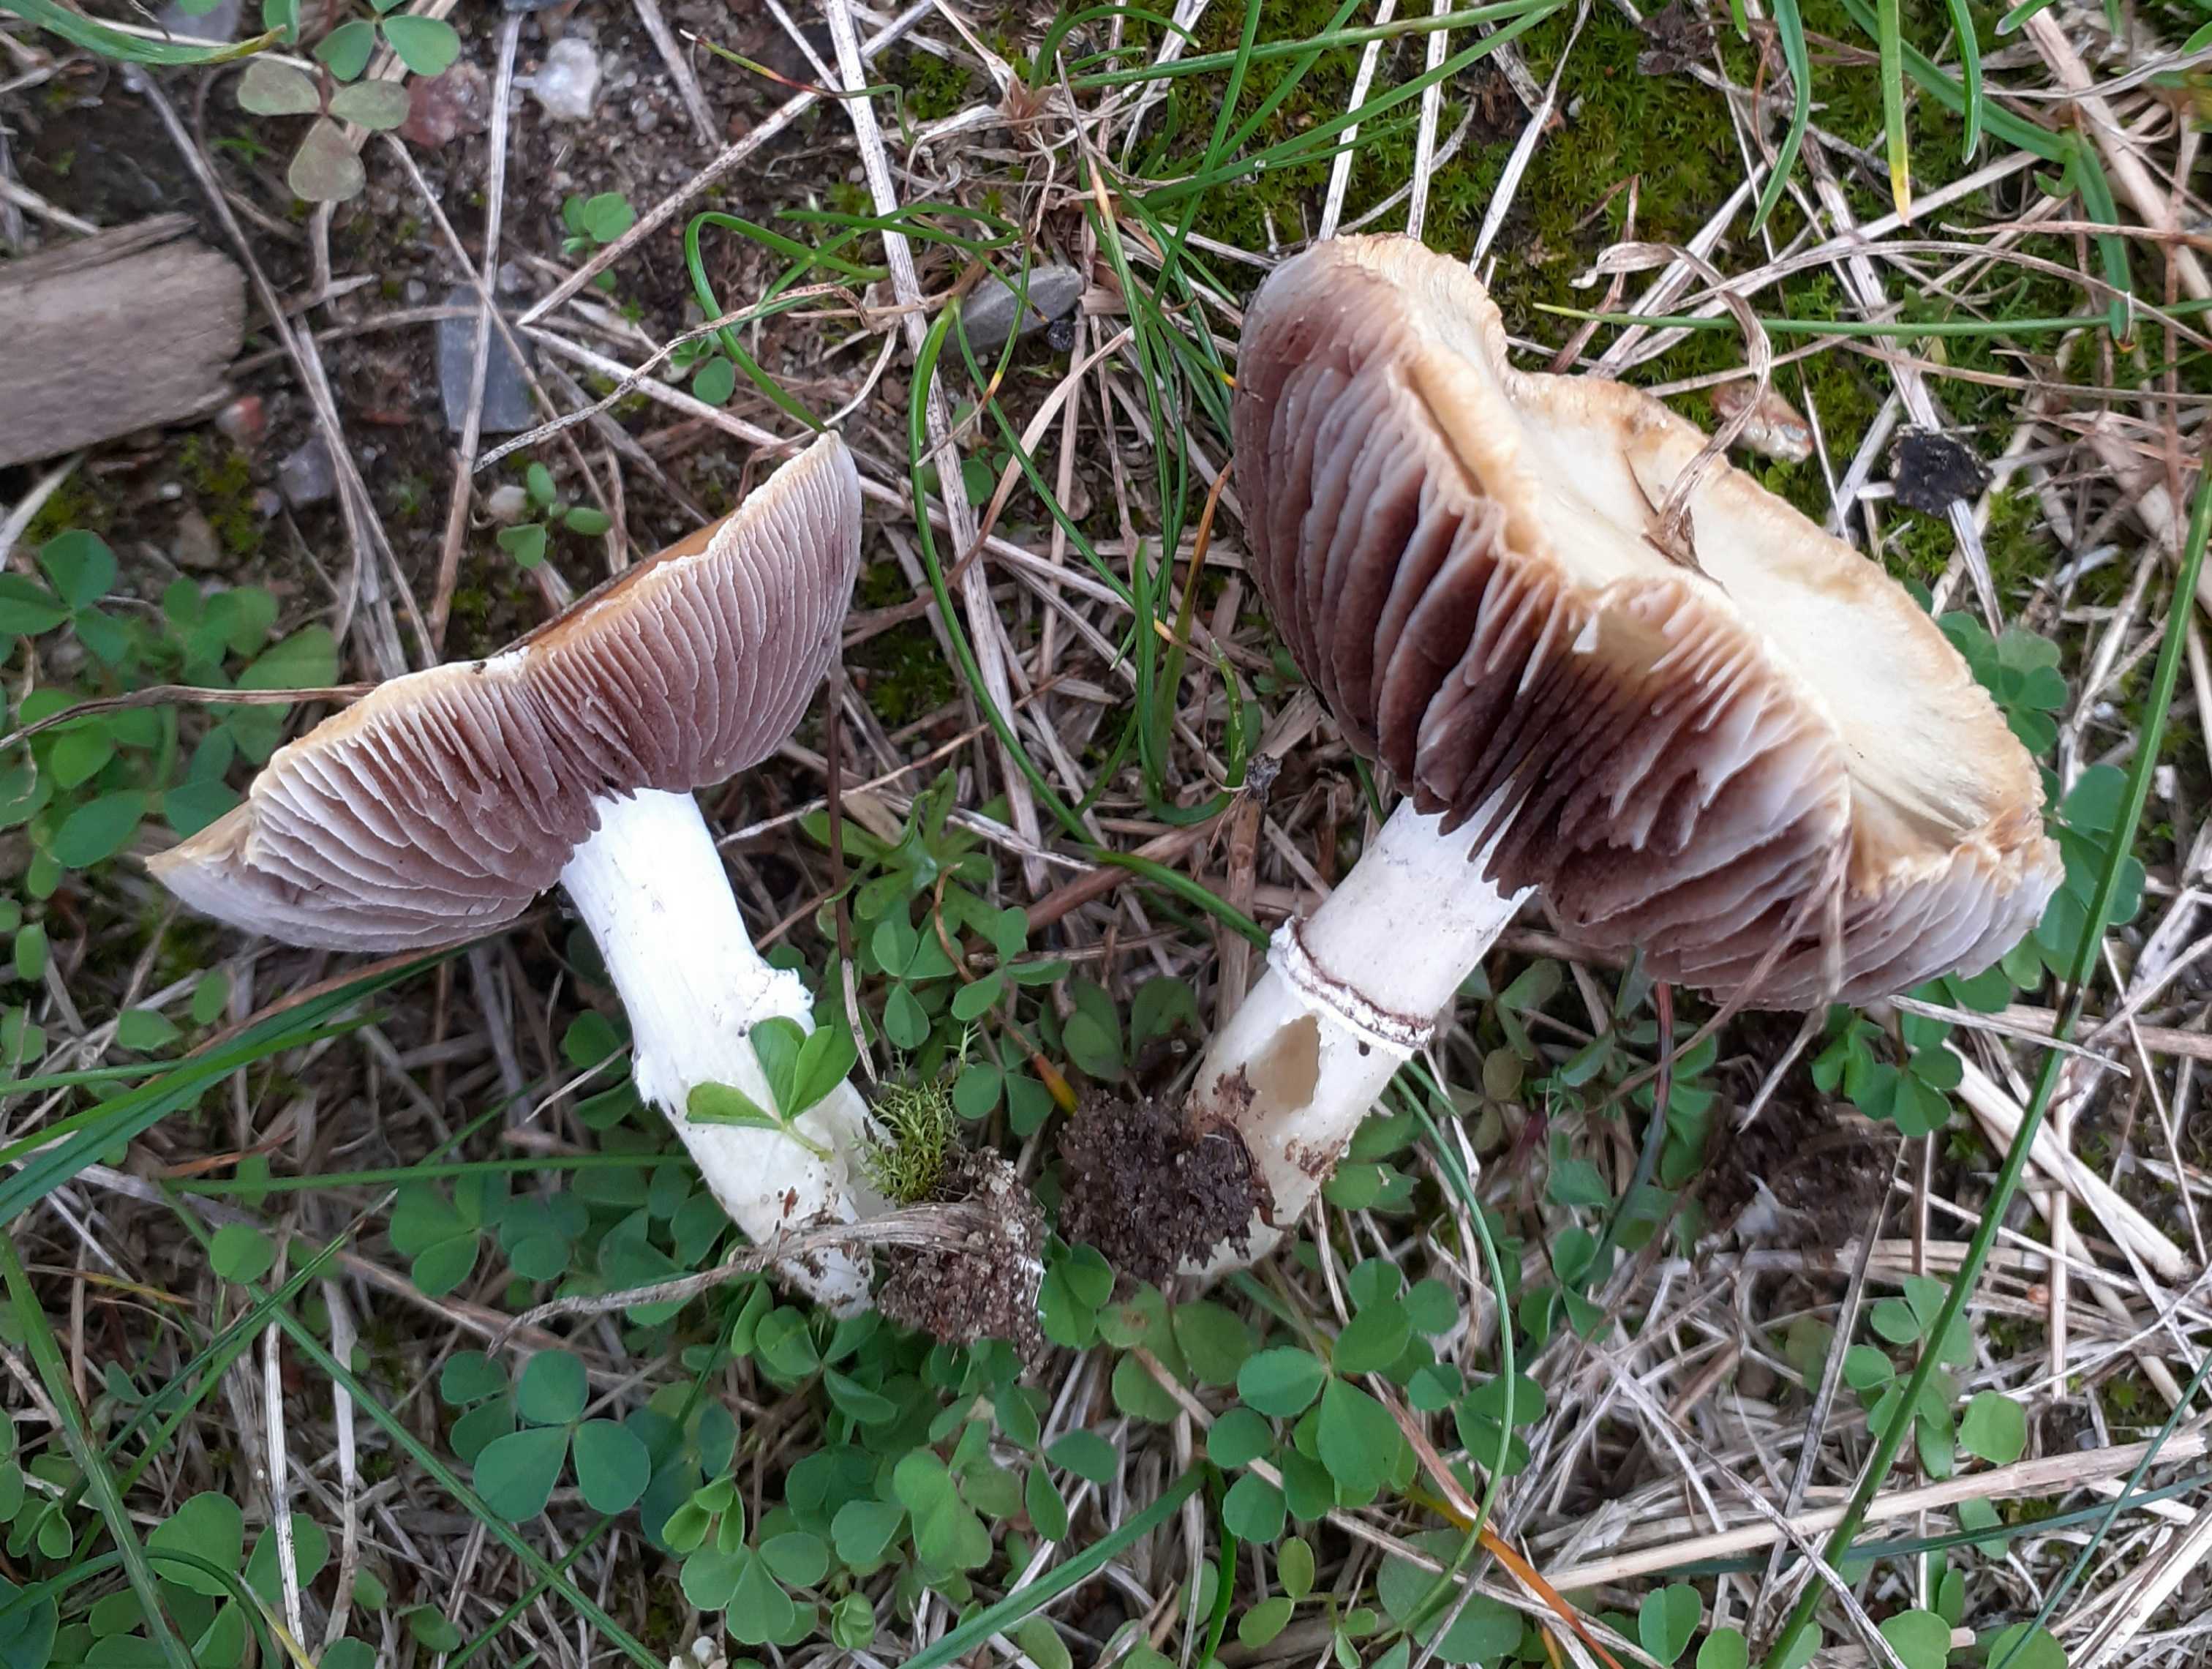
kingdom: Fungi
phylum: Basidiomycota
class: Agaricomycetes
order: Agaricales
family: Hymenogastraceae
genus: Psilocybe
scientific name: Psilocybe coronilla
